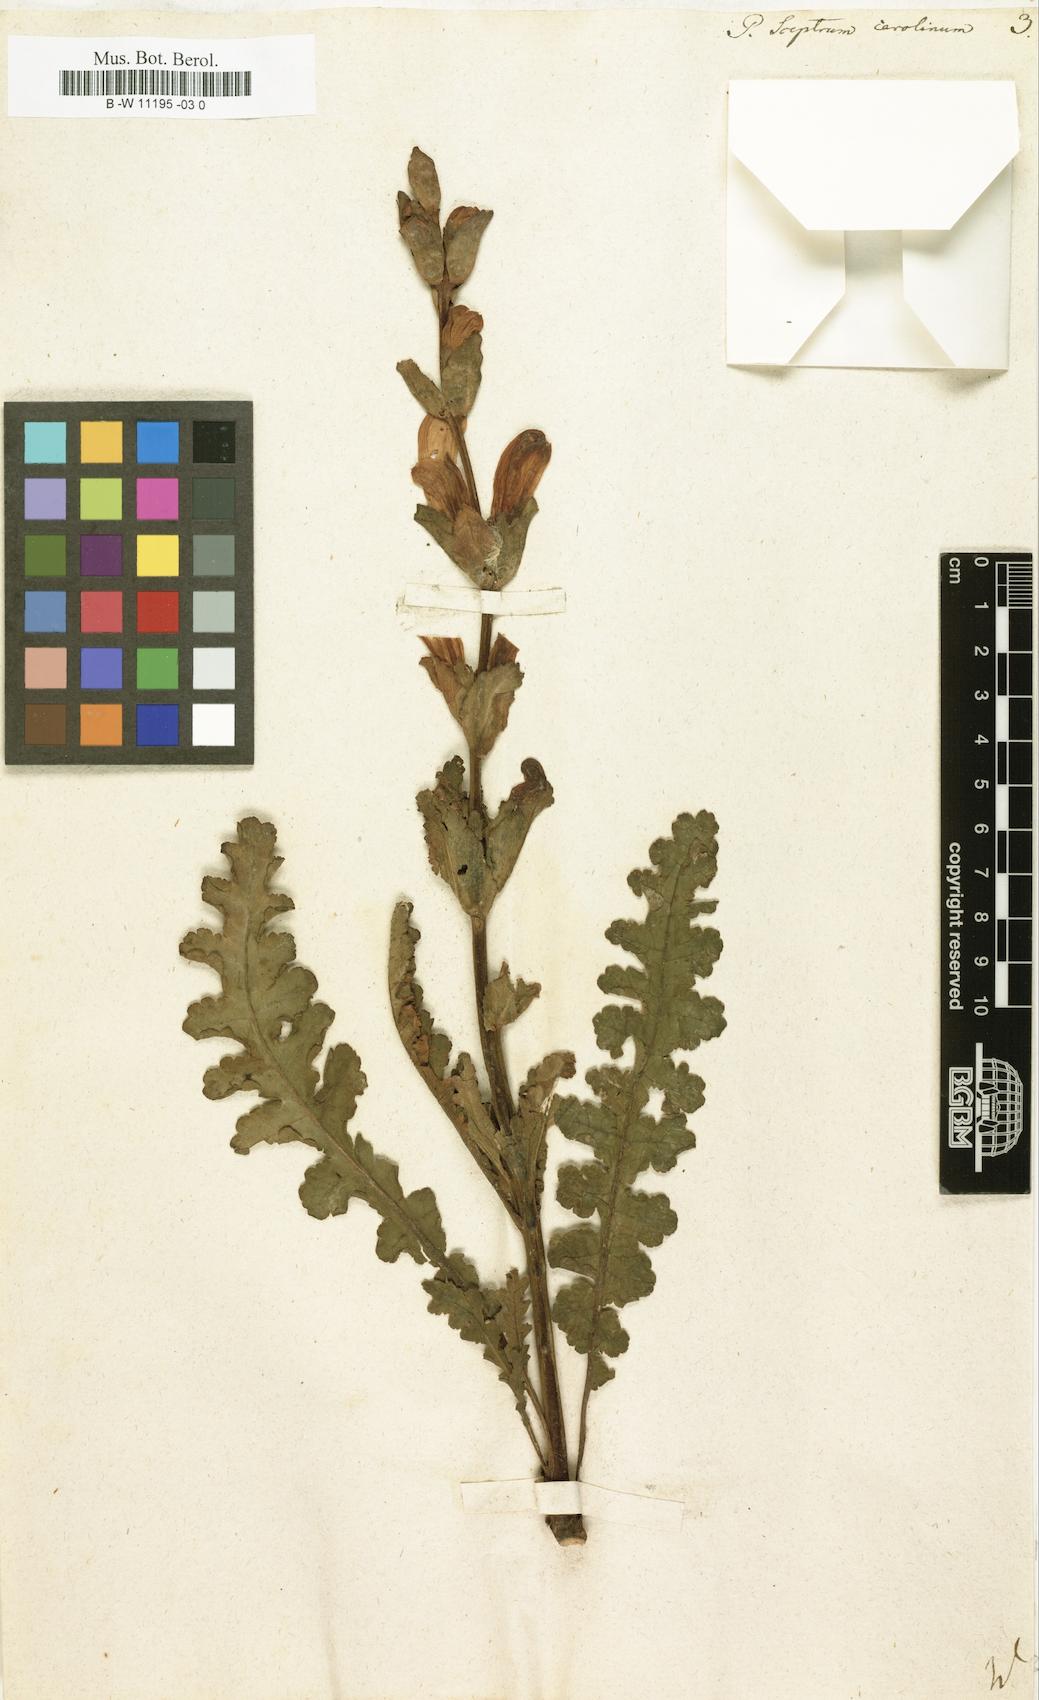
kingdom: Plantae
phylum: Tracheophyta
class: Magnoliopsida
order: Lamiales
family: Orobanchaceae
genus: Pedicularis
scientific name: Pedicularis sceptrum-carolinum
